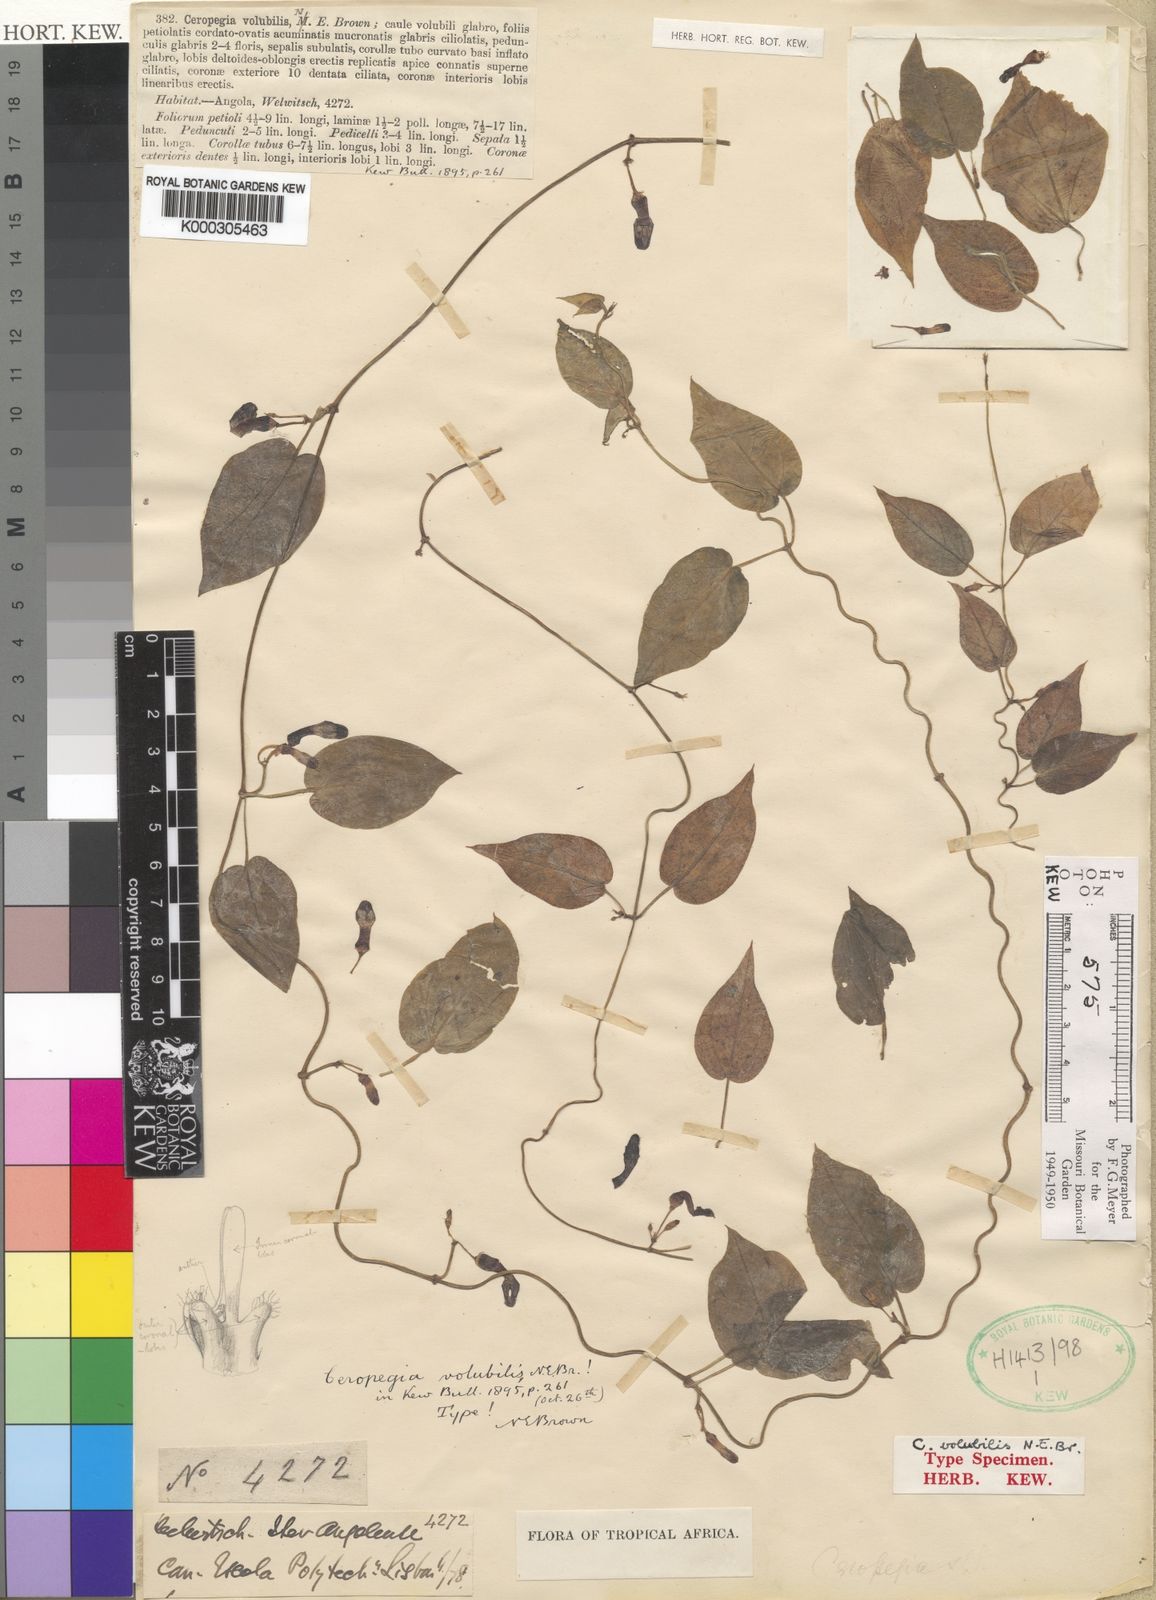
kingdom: Plantae
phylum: Tracheophyta
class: Magnoliopsida
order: Gentianales
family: Apocynaceae
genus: Ceropegia
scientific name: Ceropegia volubilis
